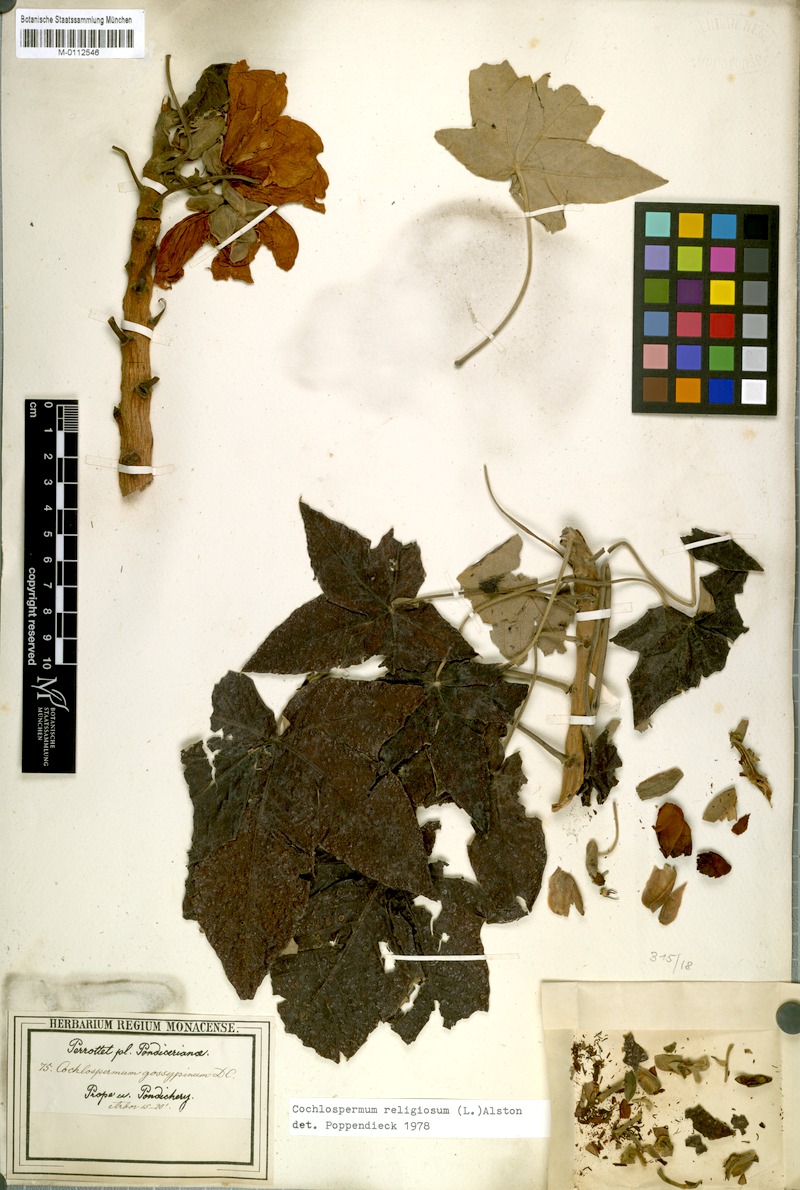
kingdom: Plantae
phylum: Tracheophyta
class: Magnoliopsida
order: Malvales
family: Cochlospermaceae
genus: Cochlospermum
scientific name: Cochlospermum religiosum
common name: Cottontree
